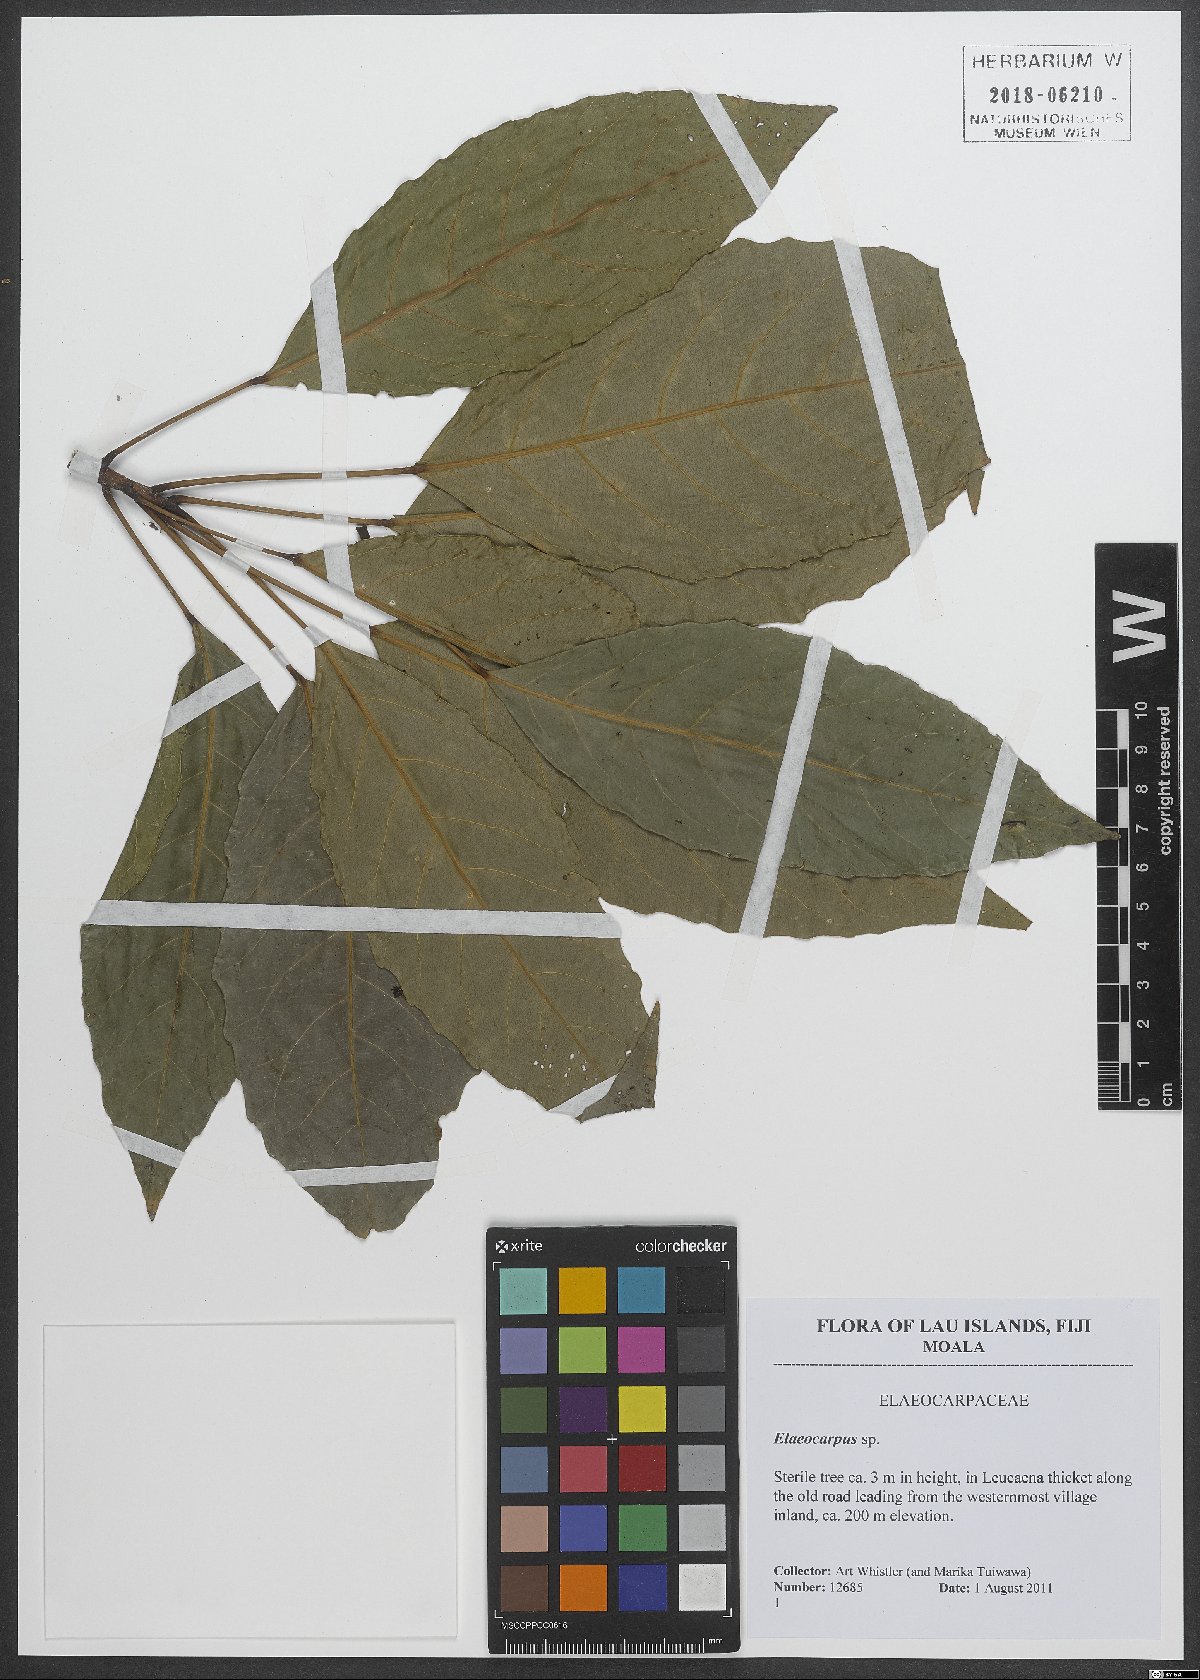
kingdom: Plantae
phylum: Tracheophyta
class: Magnoliopsida
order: Oxalidales
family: Elaeocarpaceae
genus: Elaeocarpus
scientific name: Elaeocarpus
